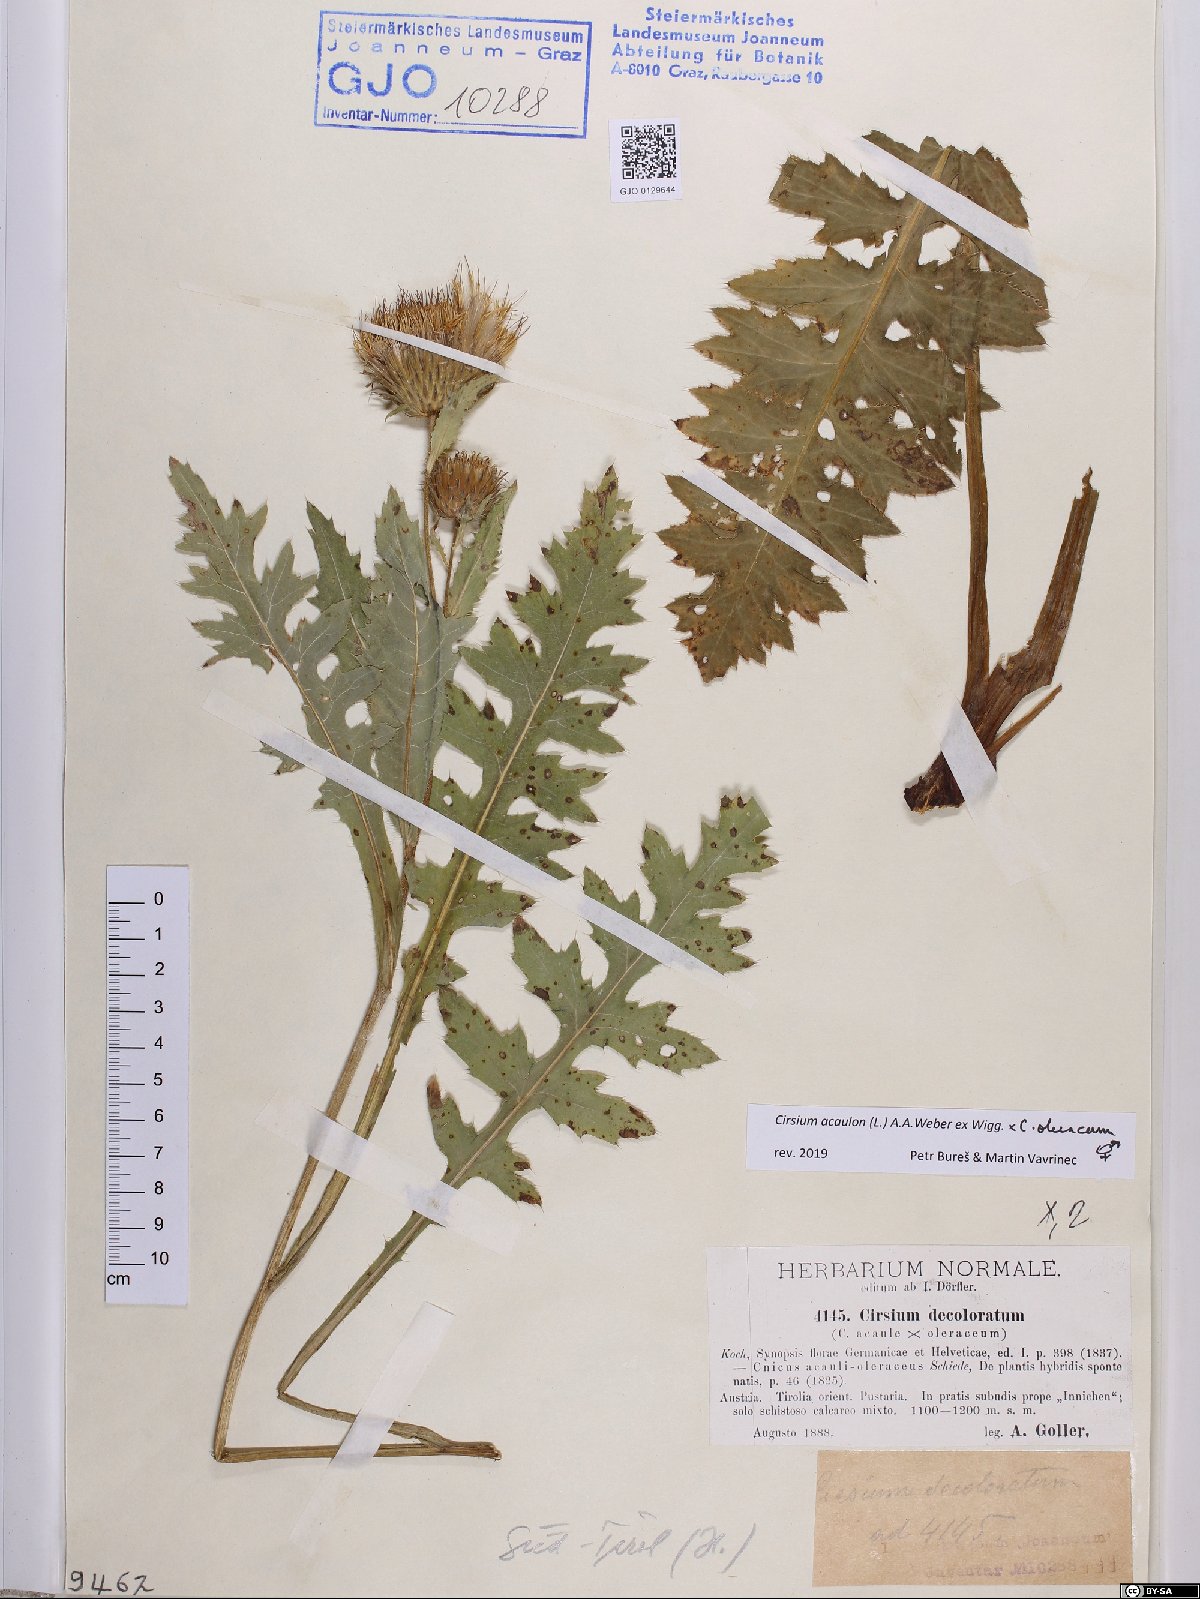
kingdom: Plantae
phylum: Tracheophyta
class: Magnoliopsida
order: Asterales
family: Asteraceae
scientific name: Asteraceae
